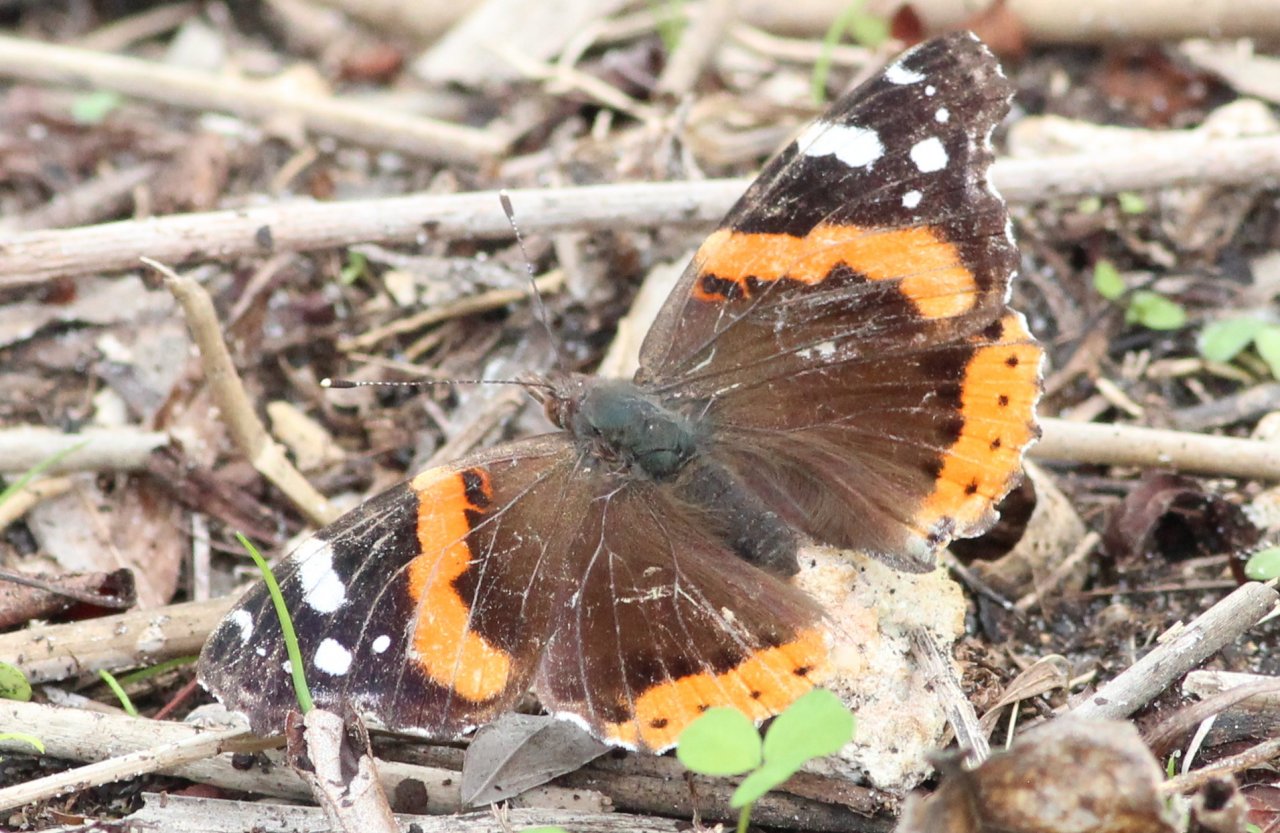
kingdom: Animalia
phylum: Arthropoda
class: Insecta
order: Lepidoptera
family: Nymphalidae
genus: Vanessa
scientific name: Vanessa atalanta
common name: Red Admiral
